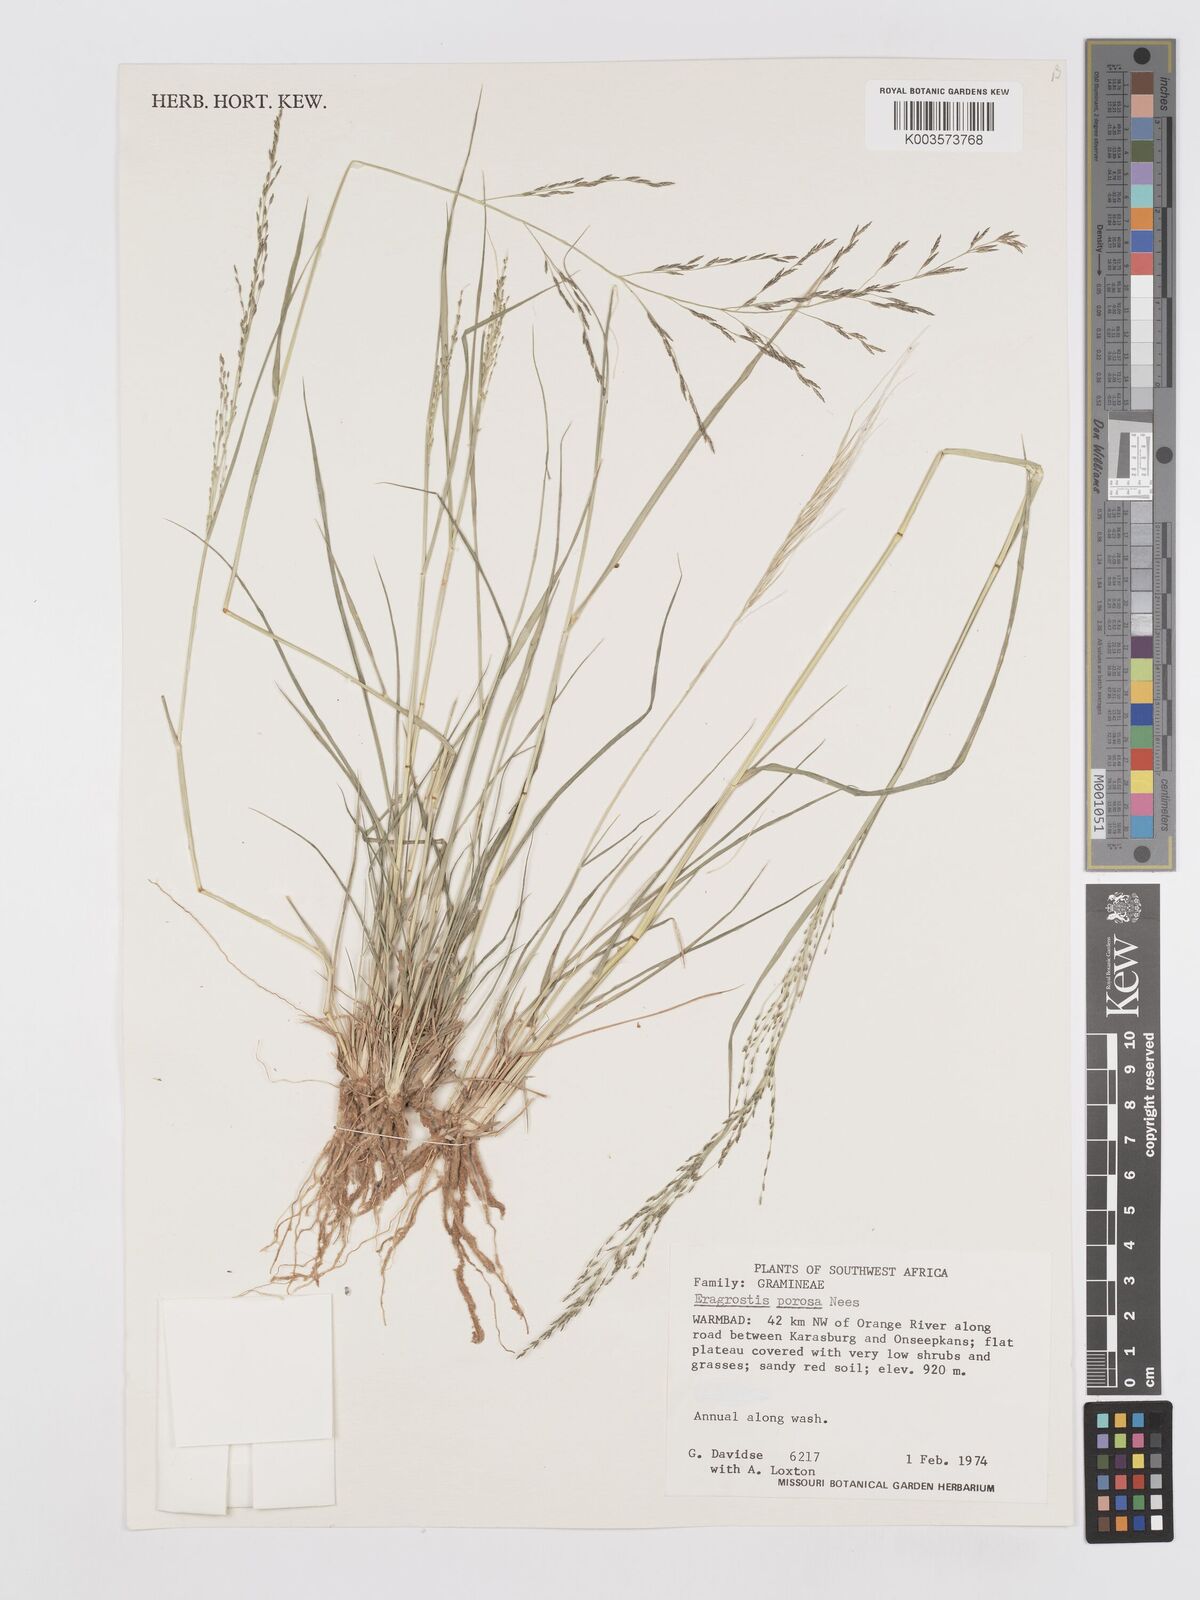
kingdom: Plantae
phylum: Tracheophyta
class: Liliopsida
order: Poales
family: Poaceae
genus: Eragrostis
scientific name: Eragrostis porosa
